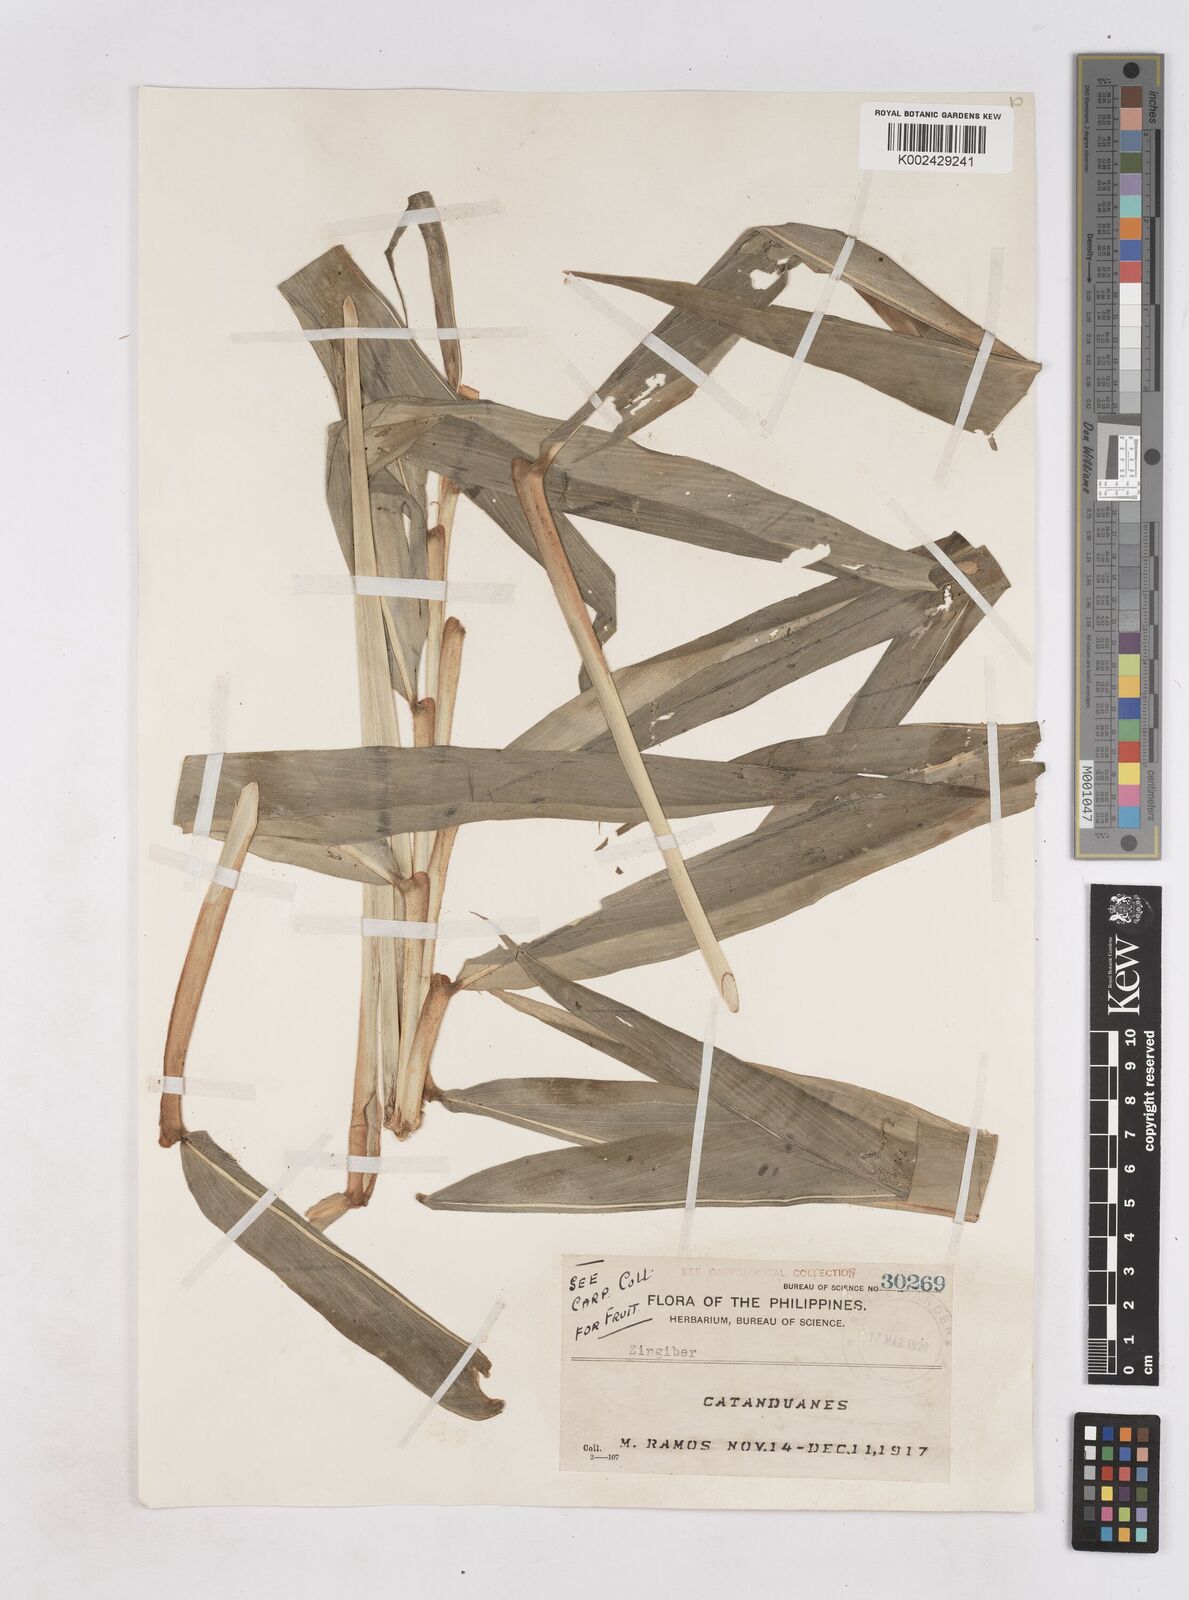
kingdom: Plantae
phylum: Tracheophyta
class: Liliopsida
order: Zingiberales
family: Zingiberaceae
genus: Zingiber
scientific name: Zingiber
